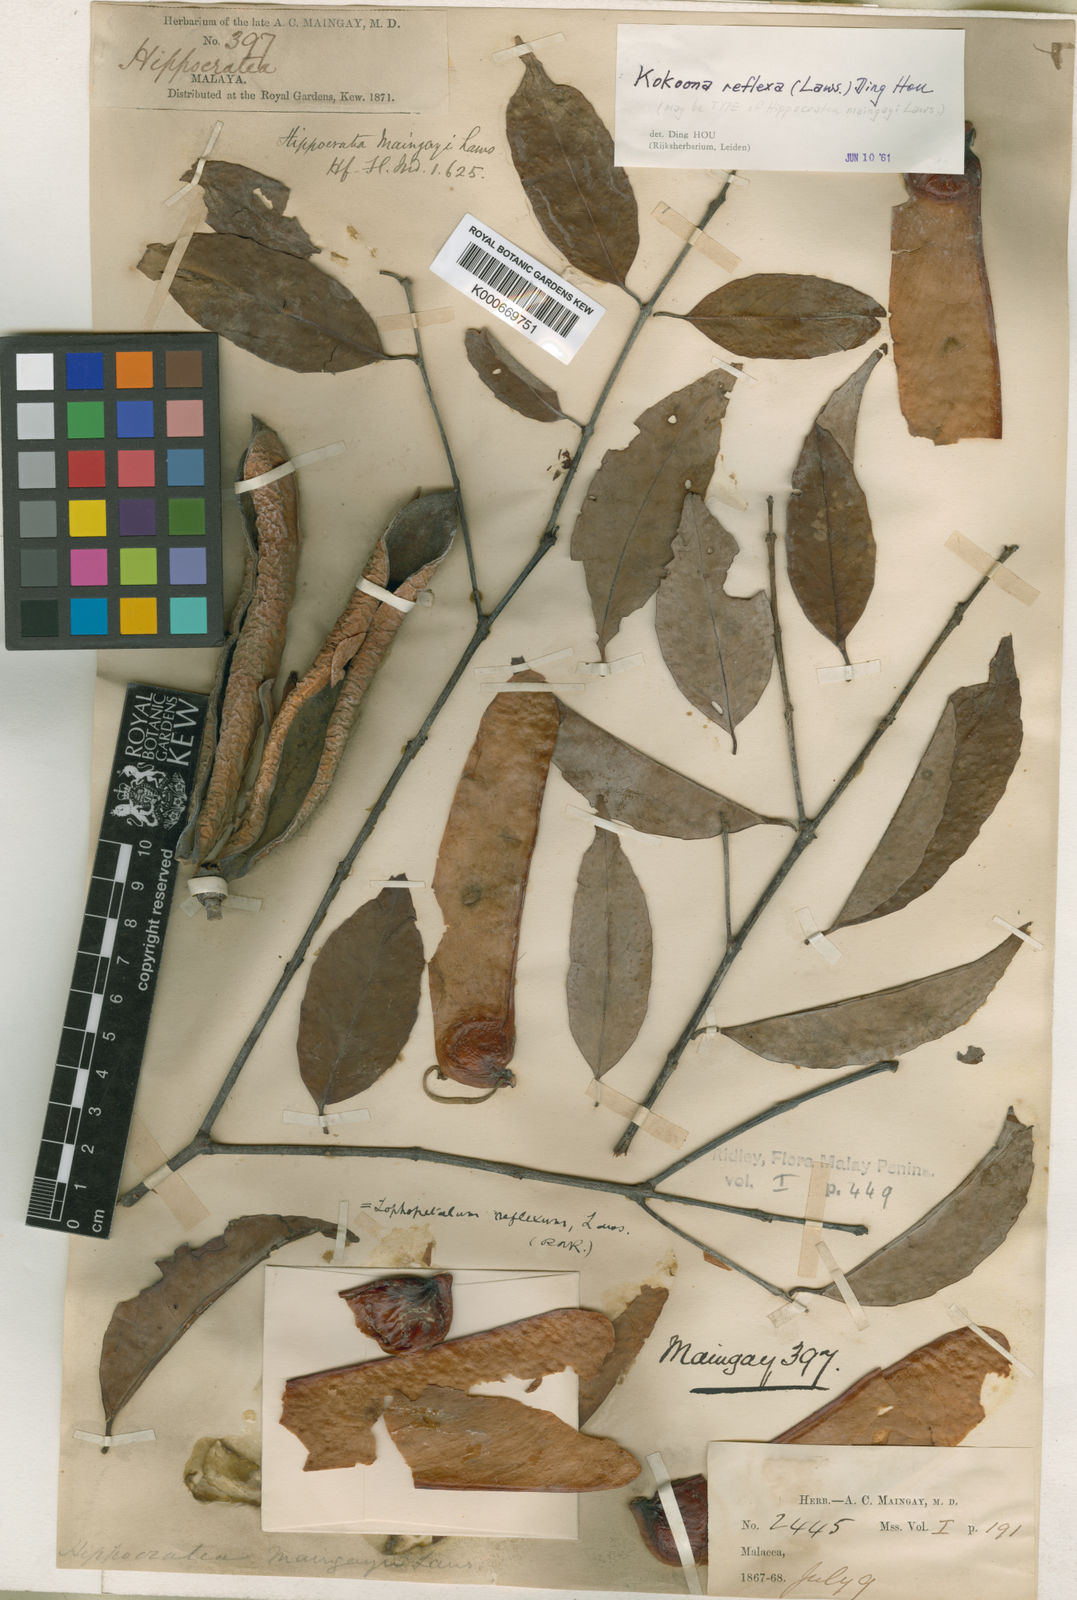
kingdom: Plantae
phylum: Tracheophyta
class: Magnoliopsida
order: Celastrales
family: Celastraceae
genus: Kokoona
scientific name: Kokoona reflexa
